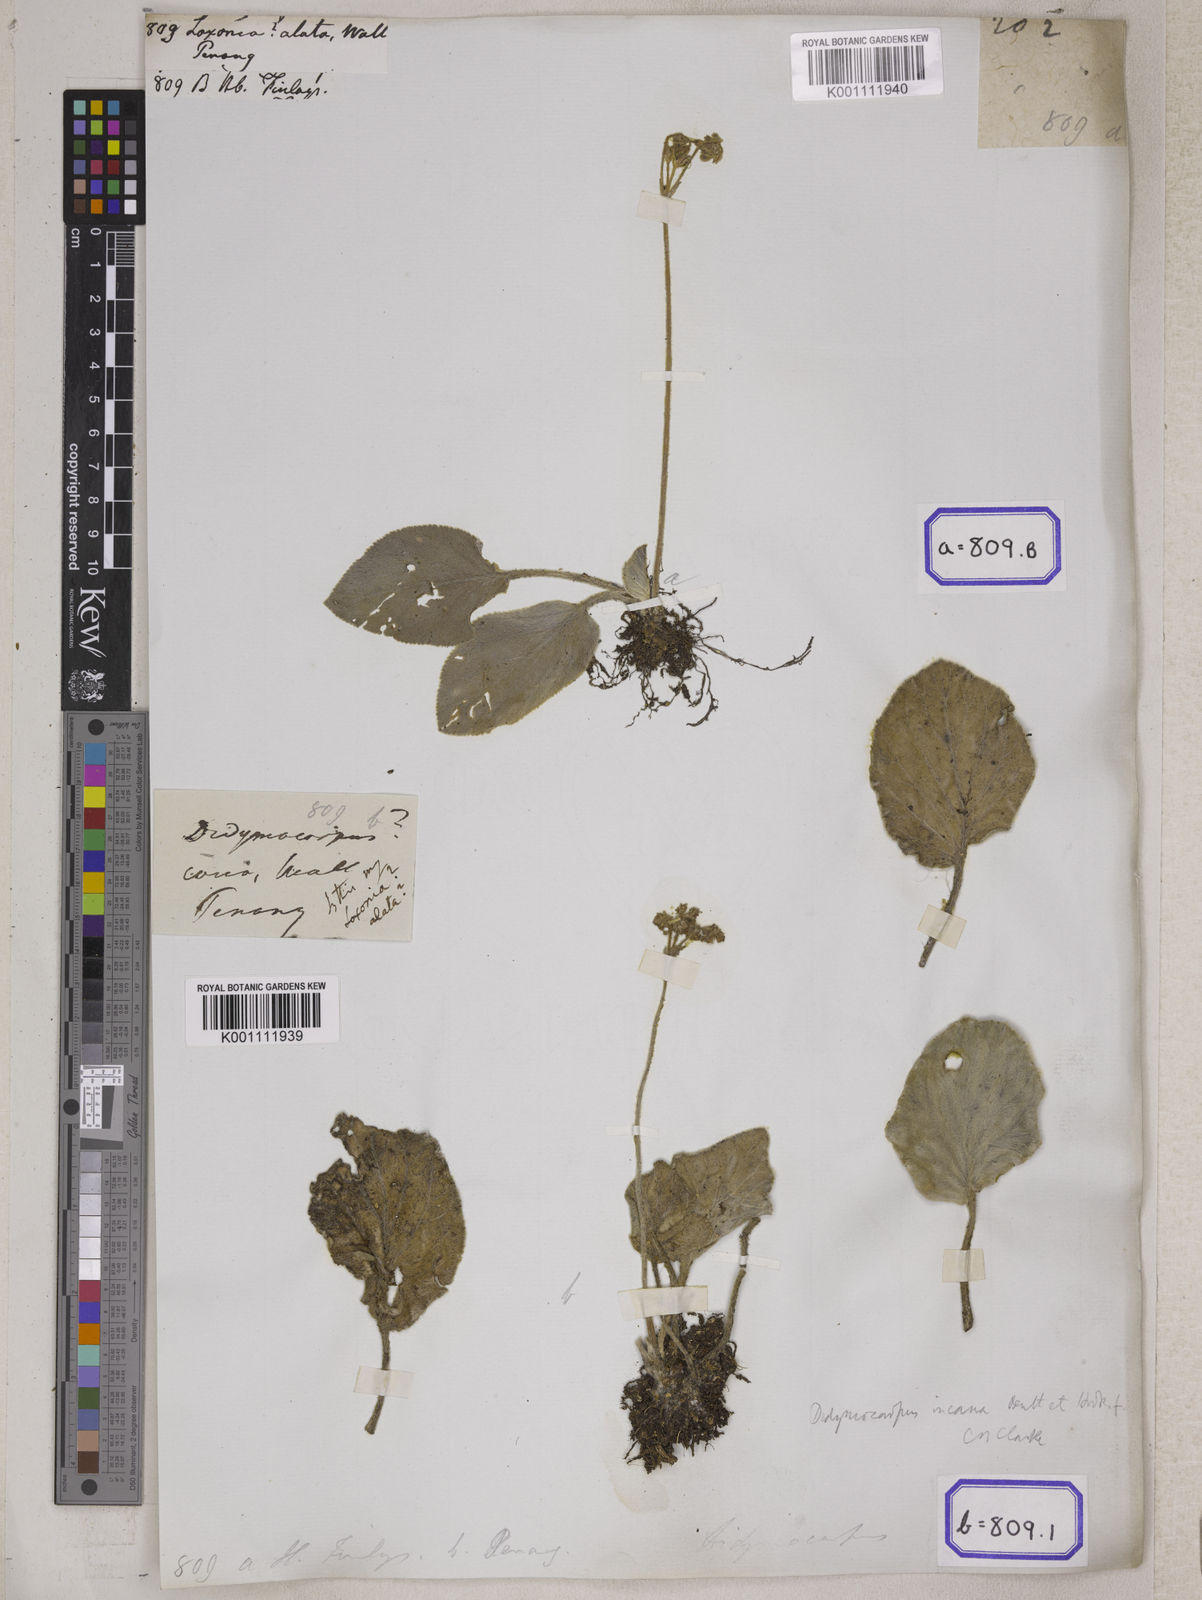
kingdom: Plantae
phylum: Tracheophyta
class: Magnoliopsida
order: Lamiales
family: Gesneriaceae
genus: Loxocarpus
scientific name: Loxocarpus incanus
